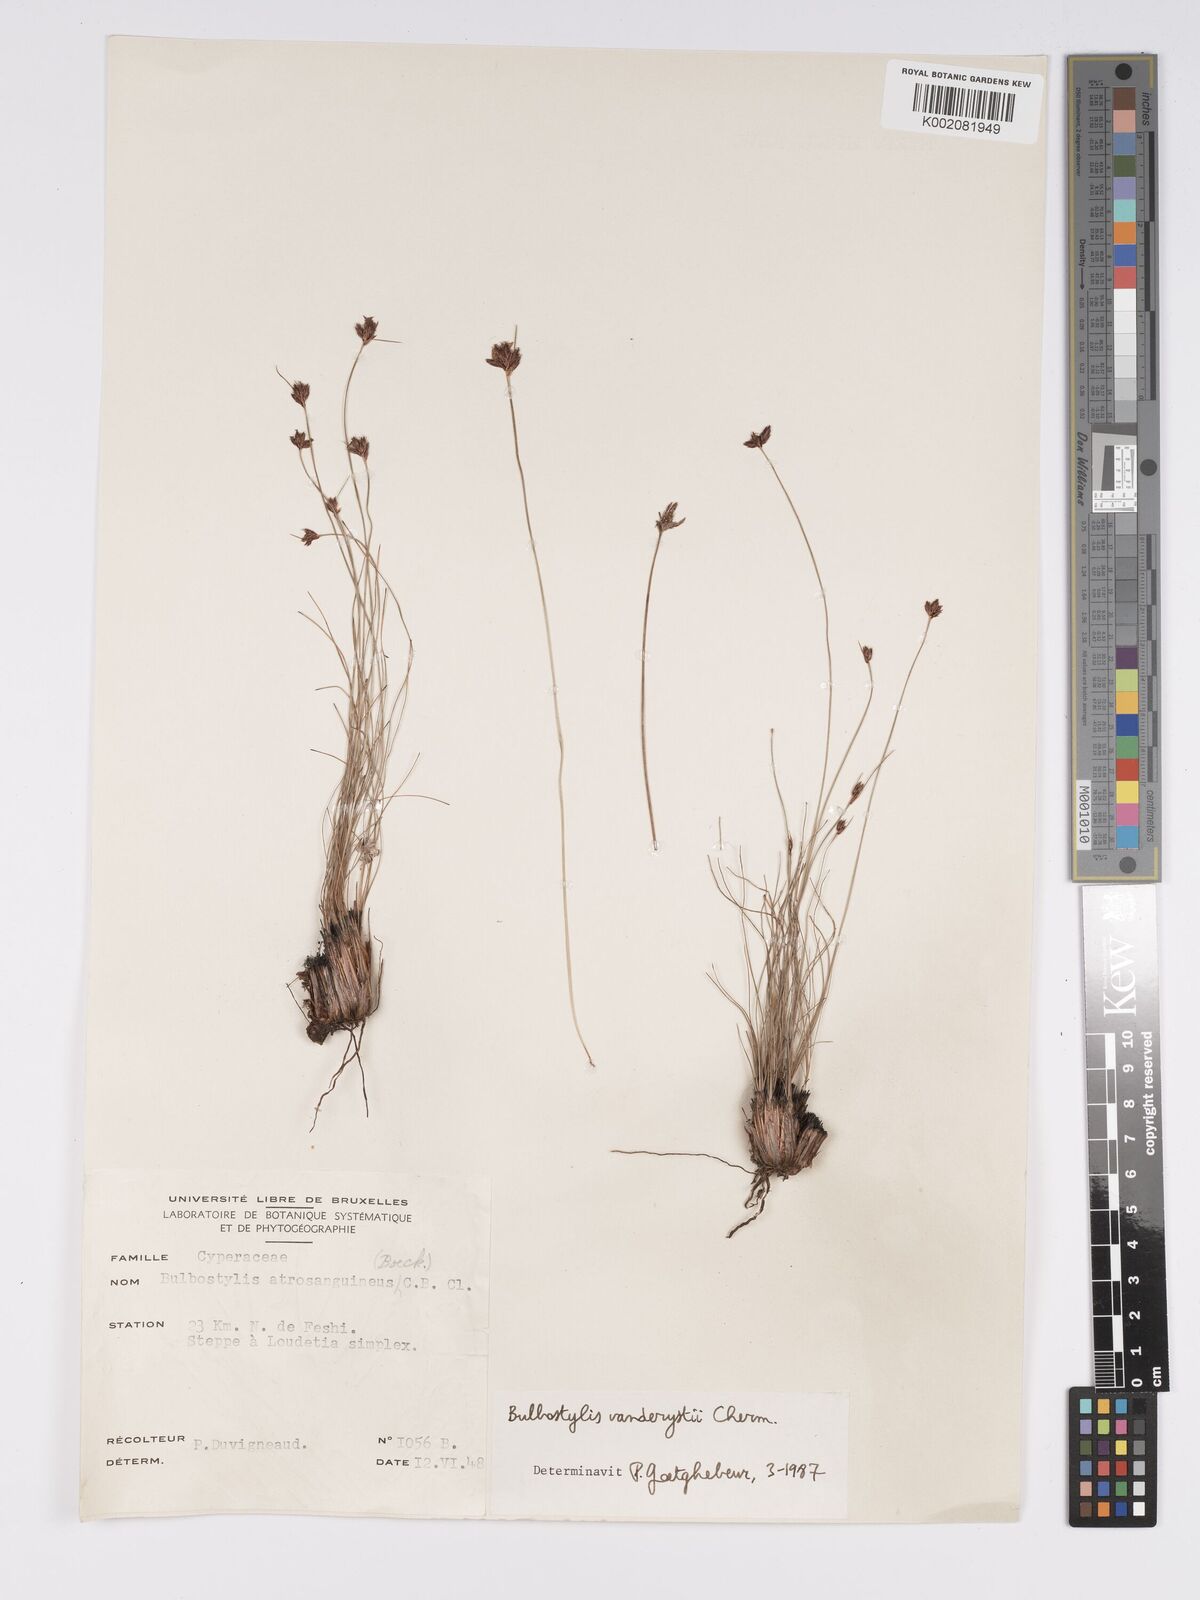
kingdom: Plantae
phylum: Tracheophyta
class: Liliopsida
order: Poales
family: Cyperaceae
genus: Bulbostylis
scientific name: Bulbostylis vanderystii
